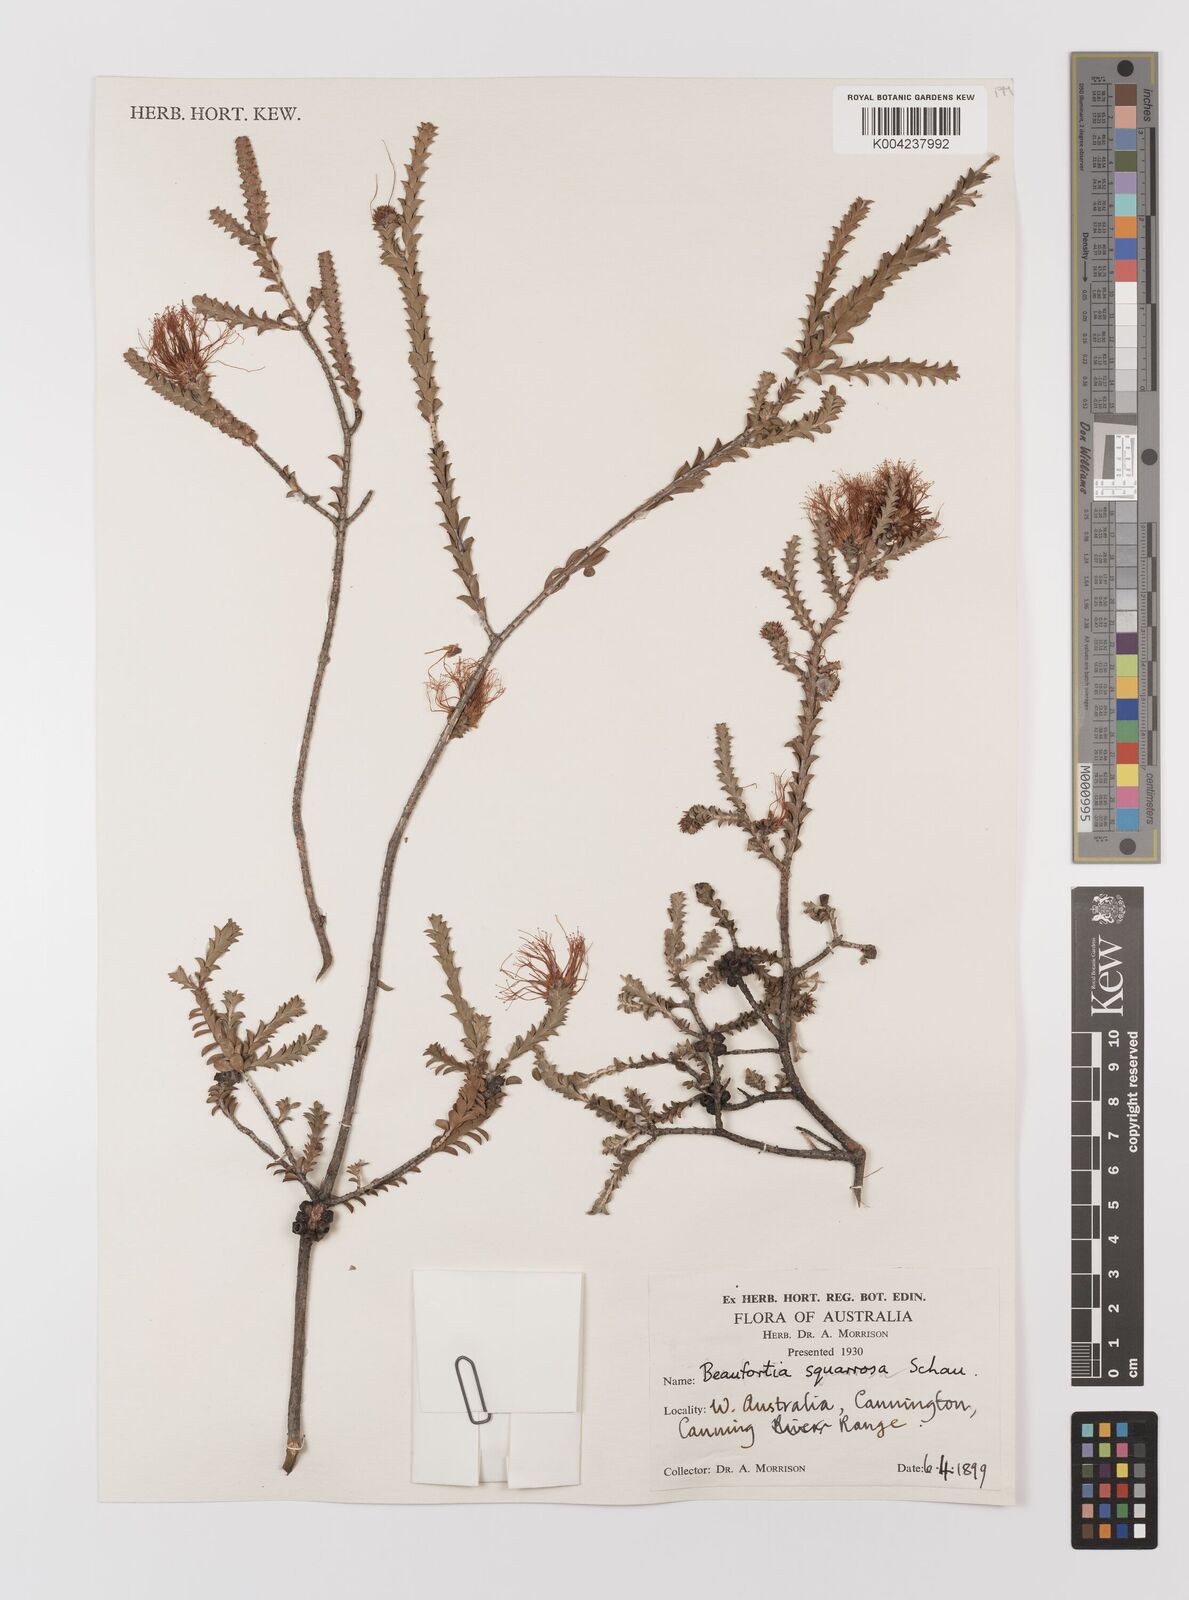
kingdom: Plantae
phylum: Tracheophyta
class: Magnoliopsida
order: Myrtales
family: Myrtaceae
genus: Melaleuca
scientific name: Melaleuca pulcherrima
